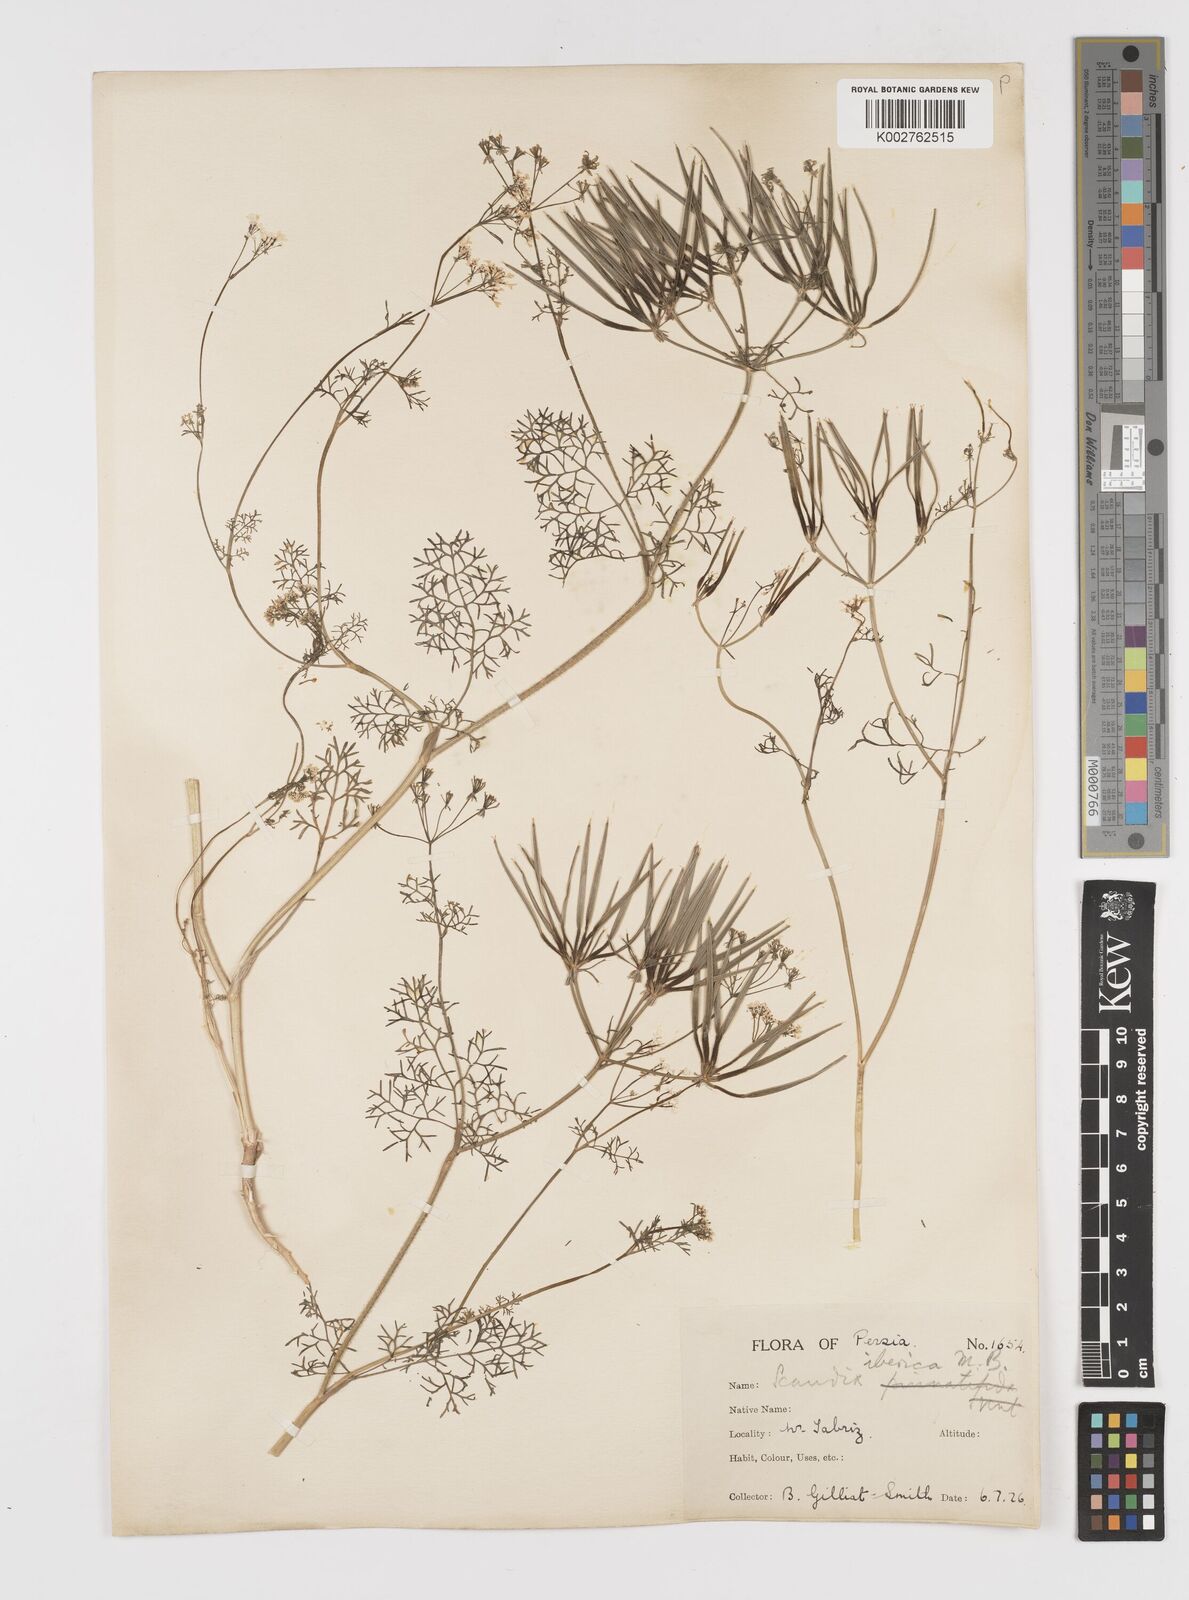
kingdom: Plantae
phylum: Tracheophyta
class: Magnoliopsida
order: Apiales
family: Apiaceae
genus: Scandix
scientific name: Scandix iberica
